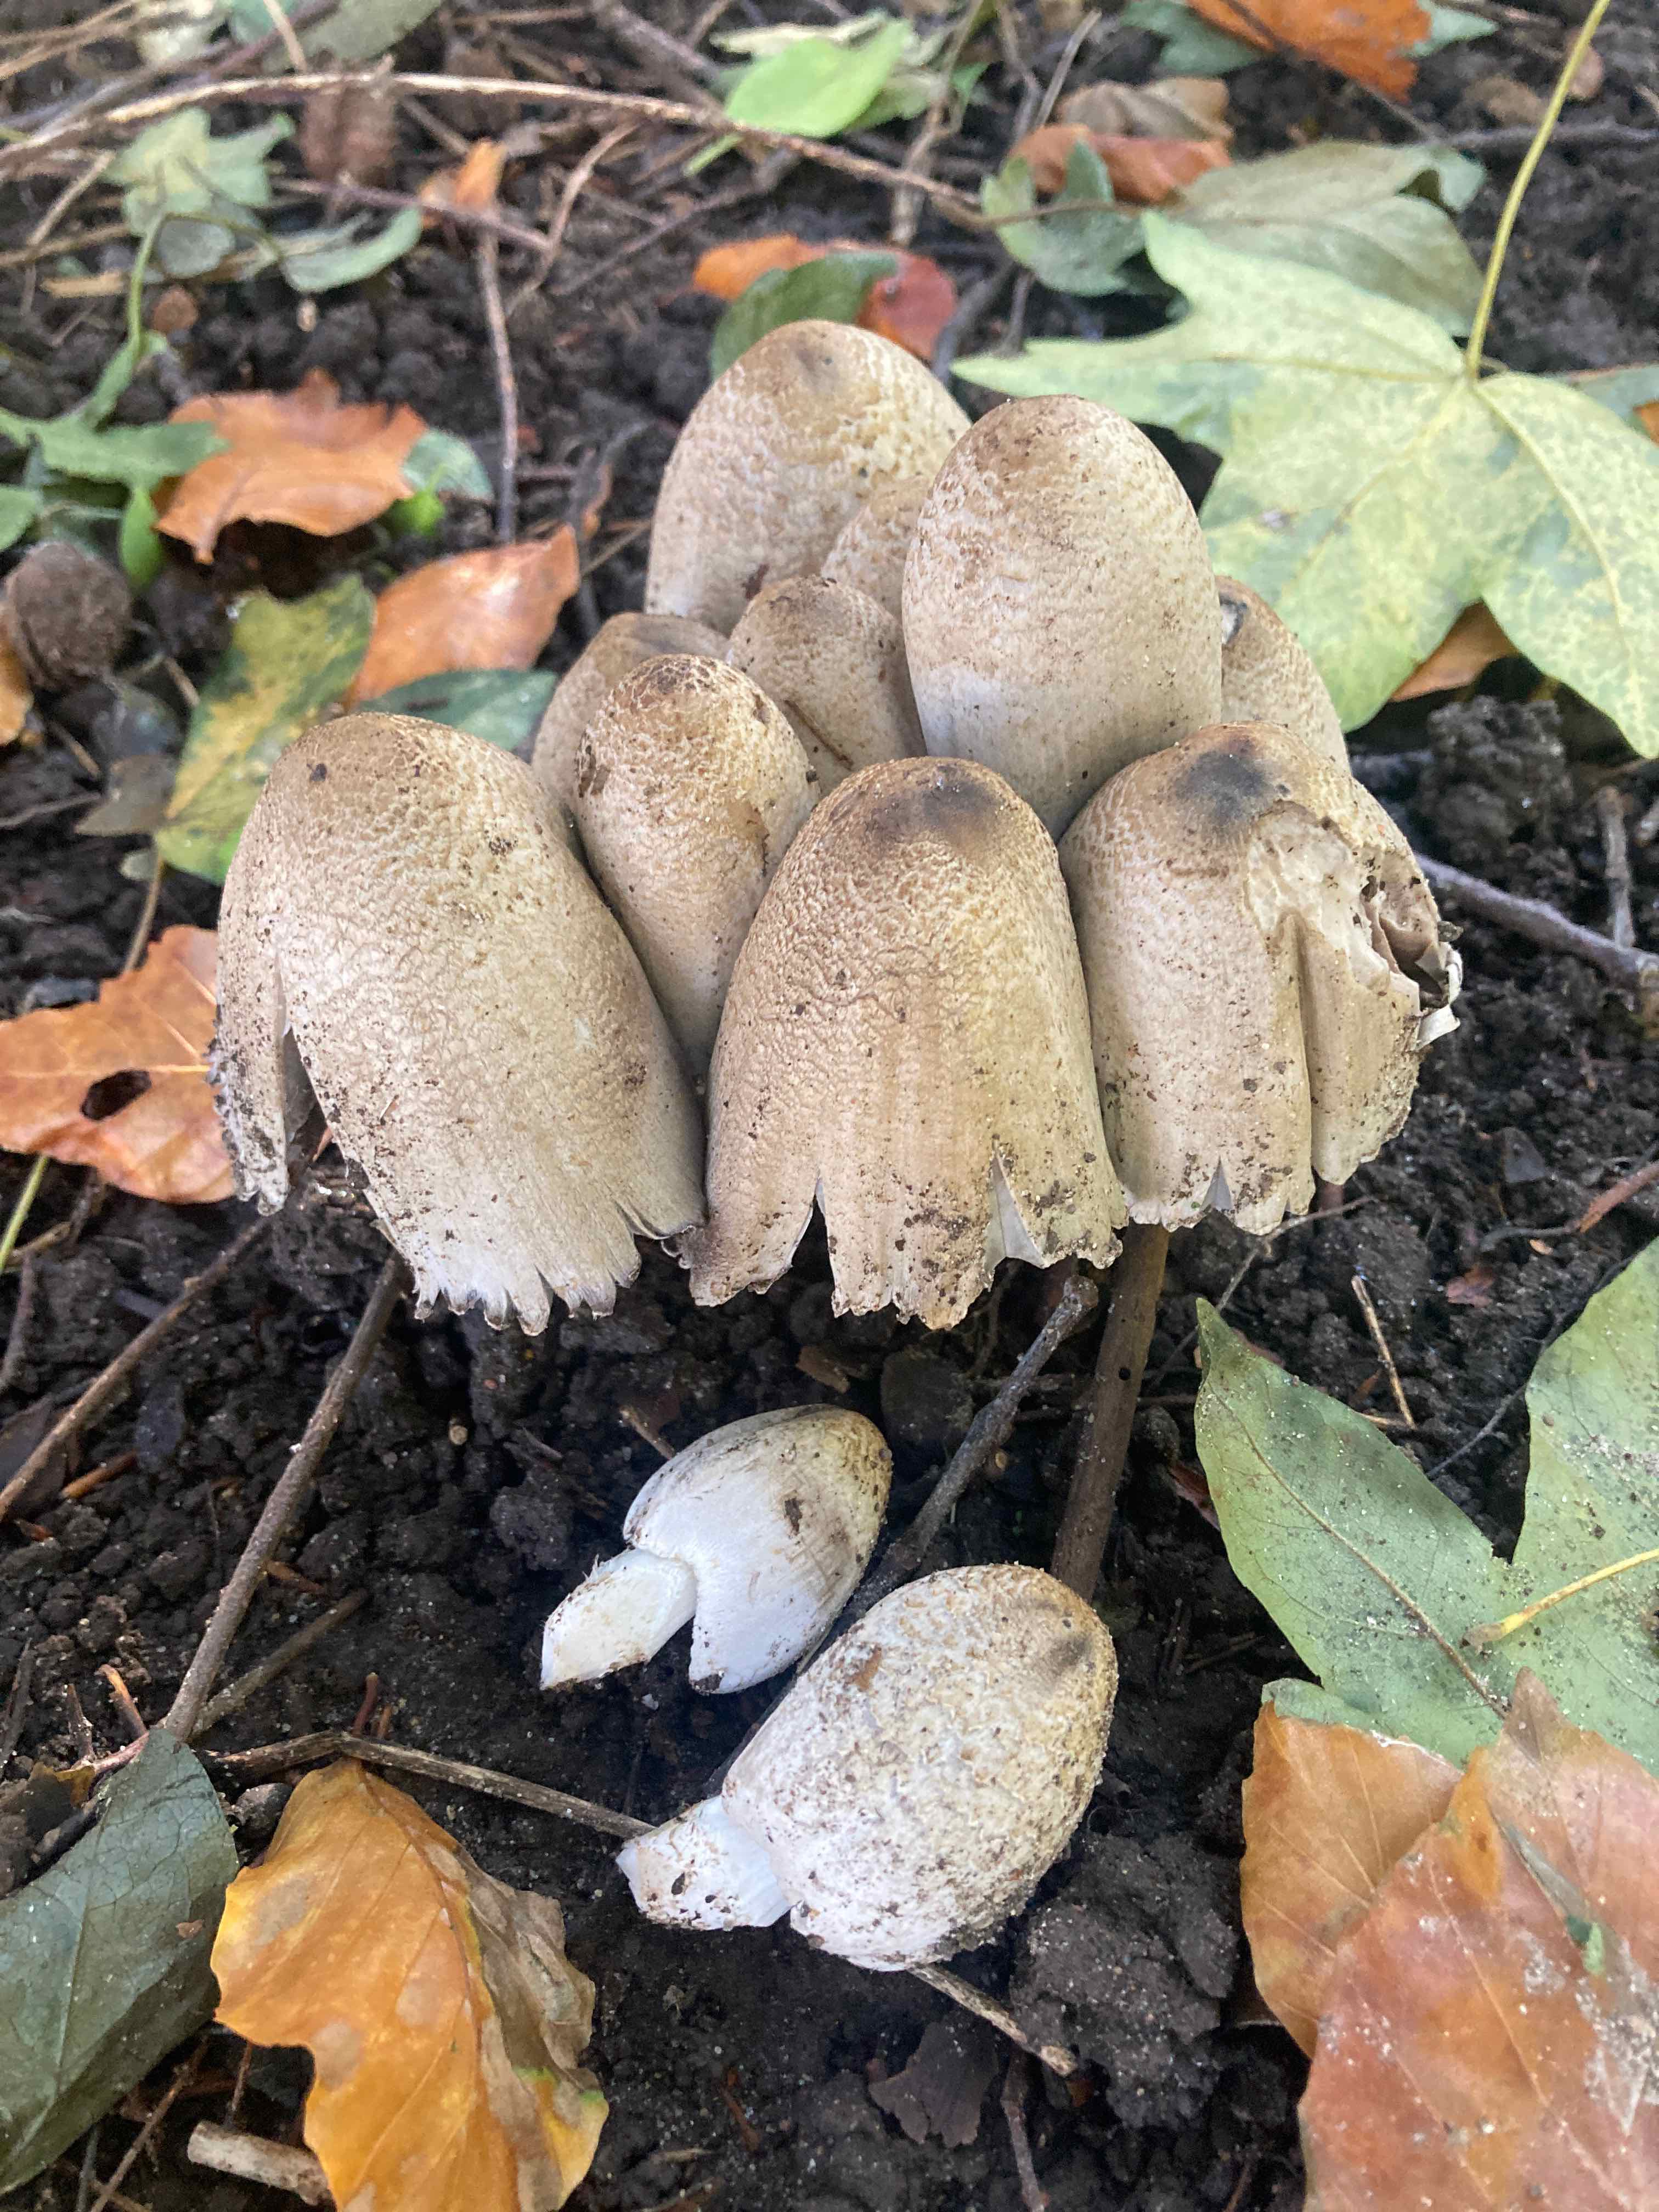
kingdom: Fungi
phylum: Basidiomycota
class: Agaricomycetes
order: Agaricales
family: Psathyrellaceae
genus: Coprinopsis
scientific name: Coprinopsis romagnesiana
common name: brunskællet blækhat
